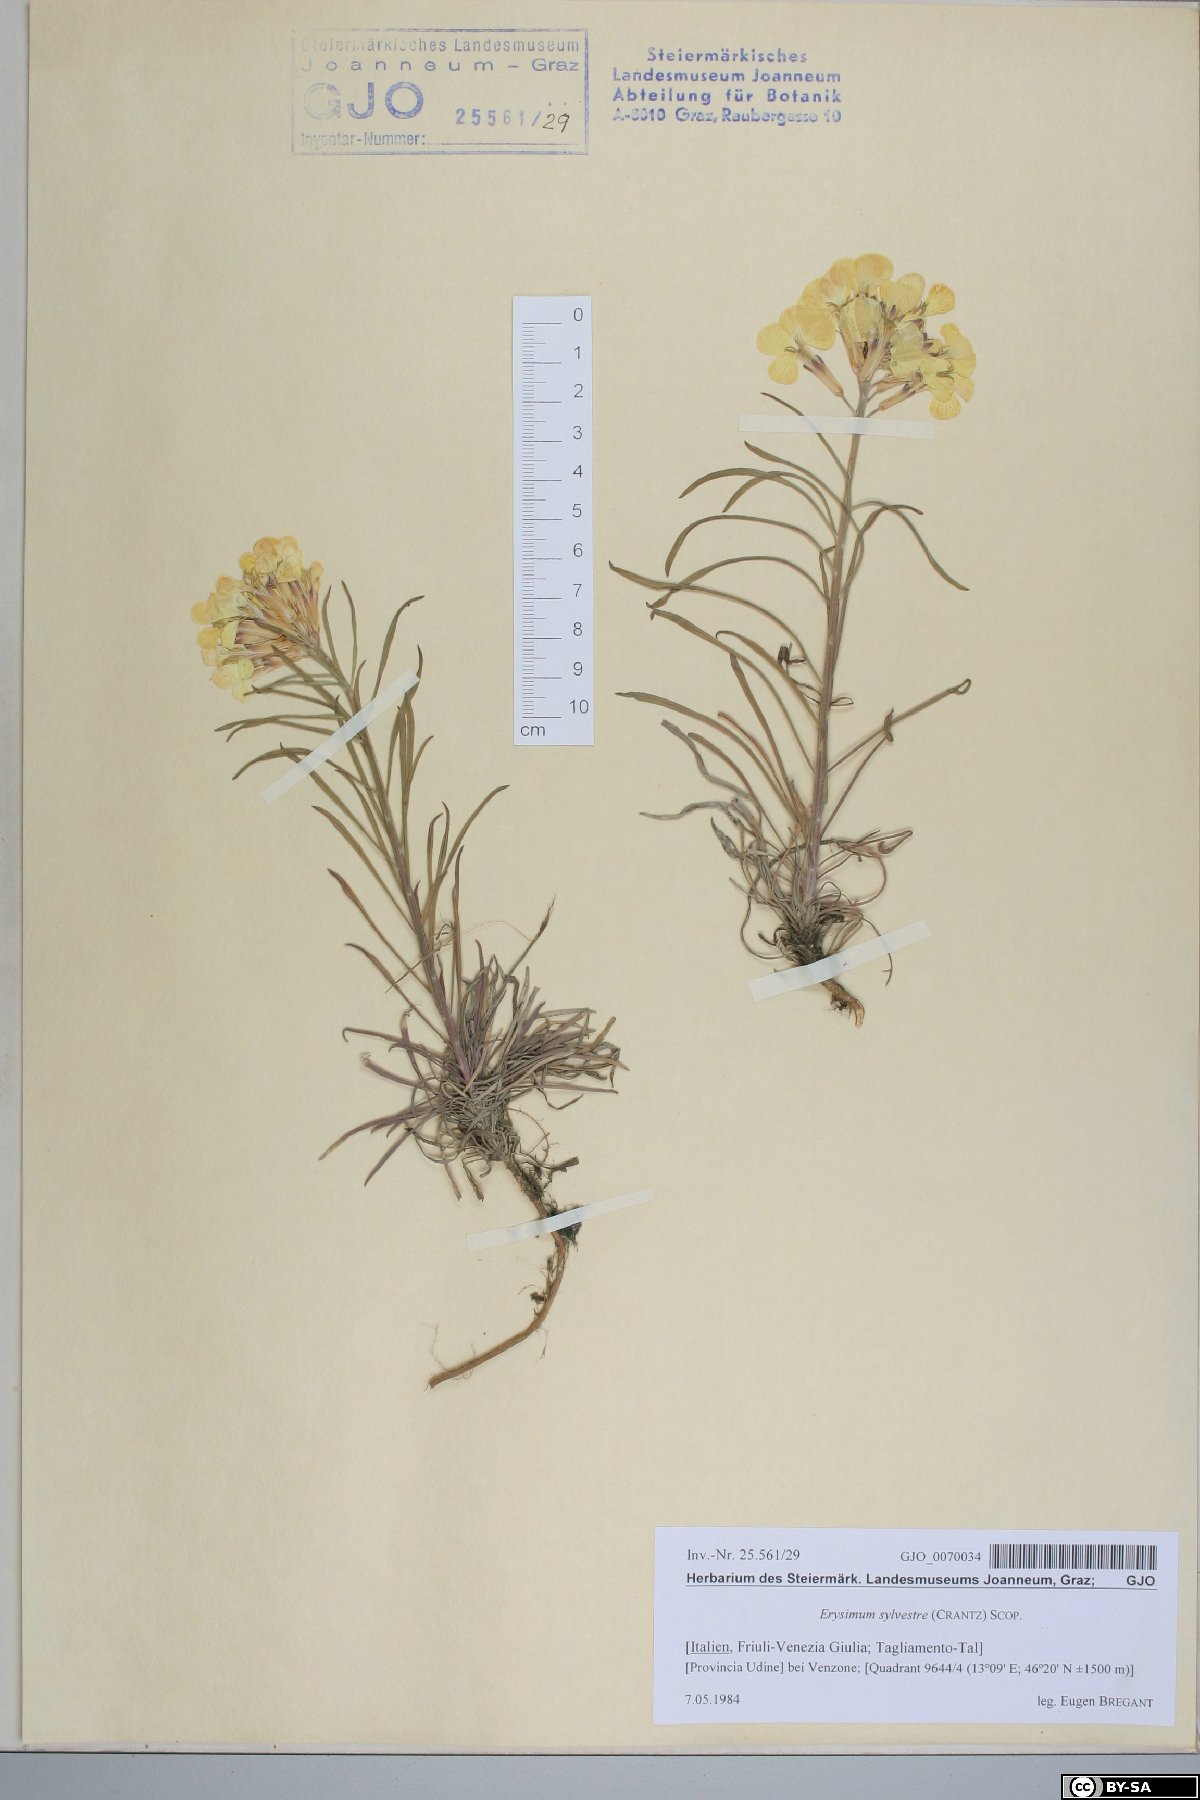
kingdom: Plantae
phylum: Tracheophyta
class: Magnoliopsida
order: Brassicales
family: Brassicaceae
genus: Erysimum
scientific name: Erysimum sylvestre
